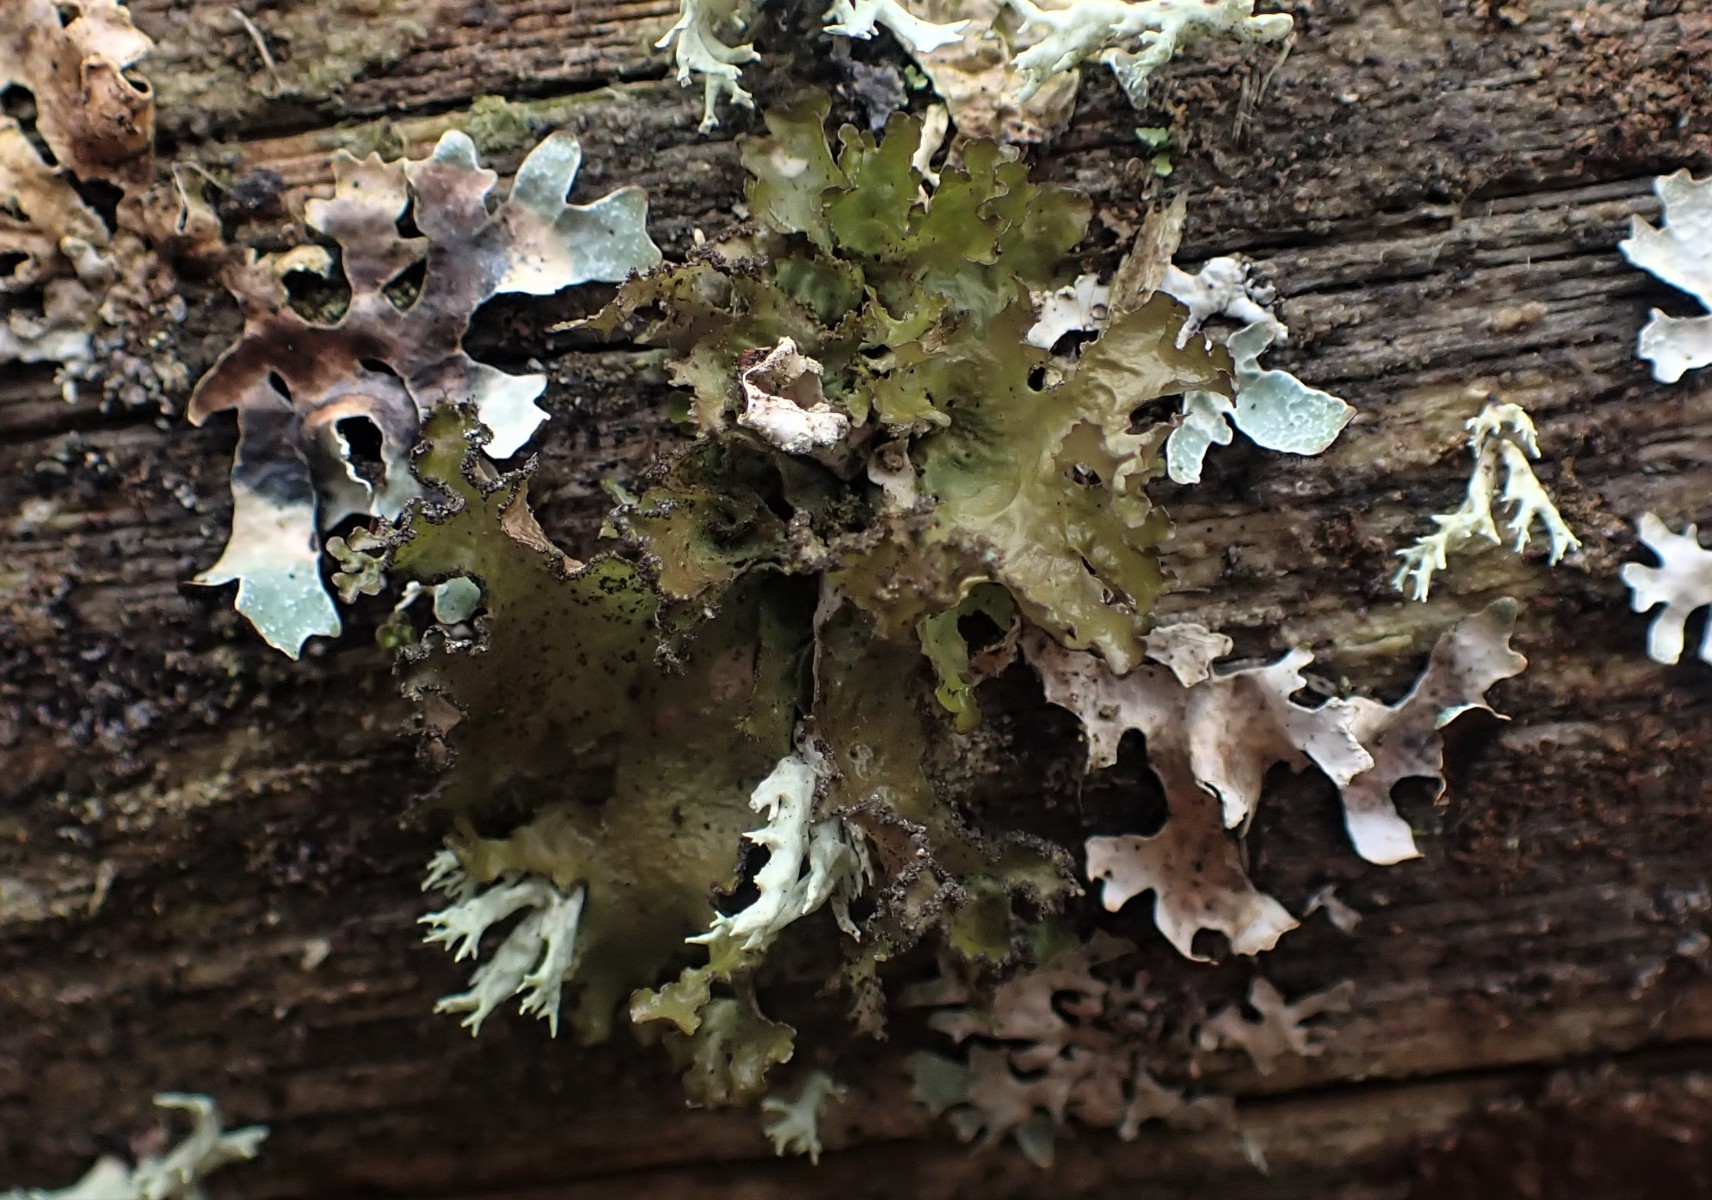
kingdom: Fungi
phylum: Ascomycota
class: Lecanoromycetes
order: Lecanorales
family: Parmeliaceae
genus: Nephromopsis
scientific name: Nephromopsis chlorophylla
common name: olivenbrun kruslav
